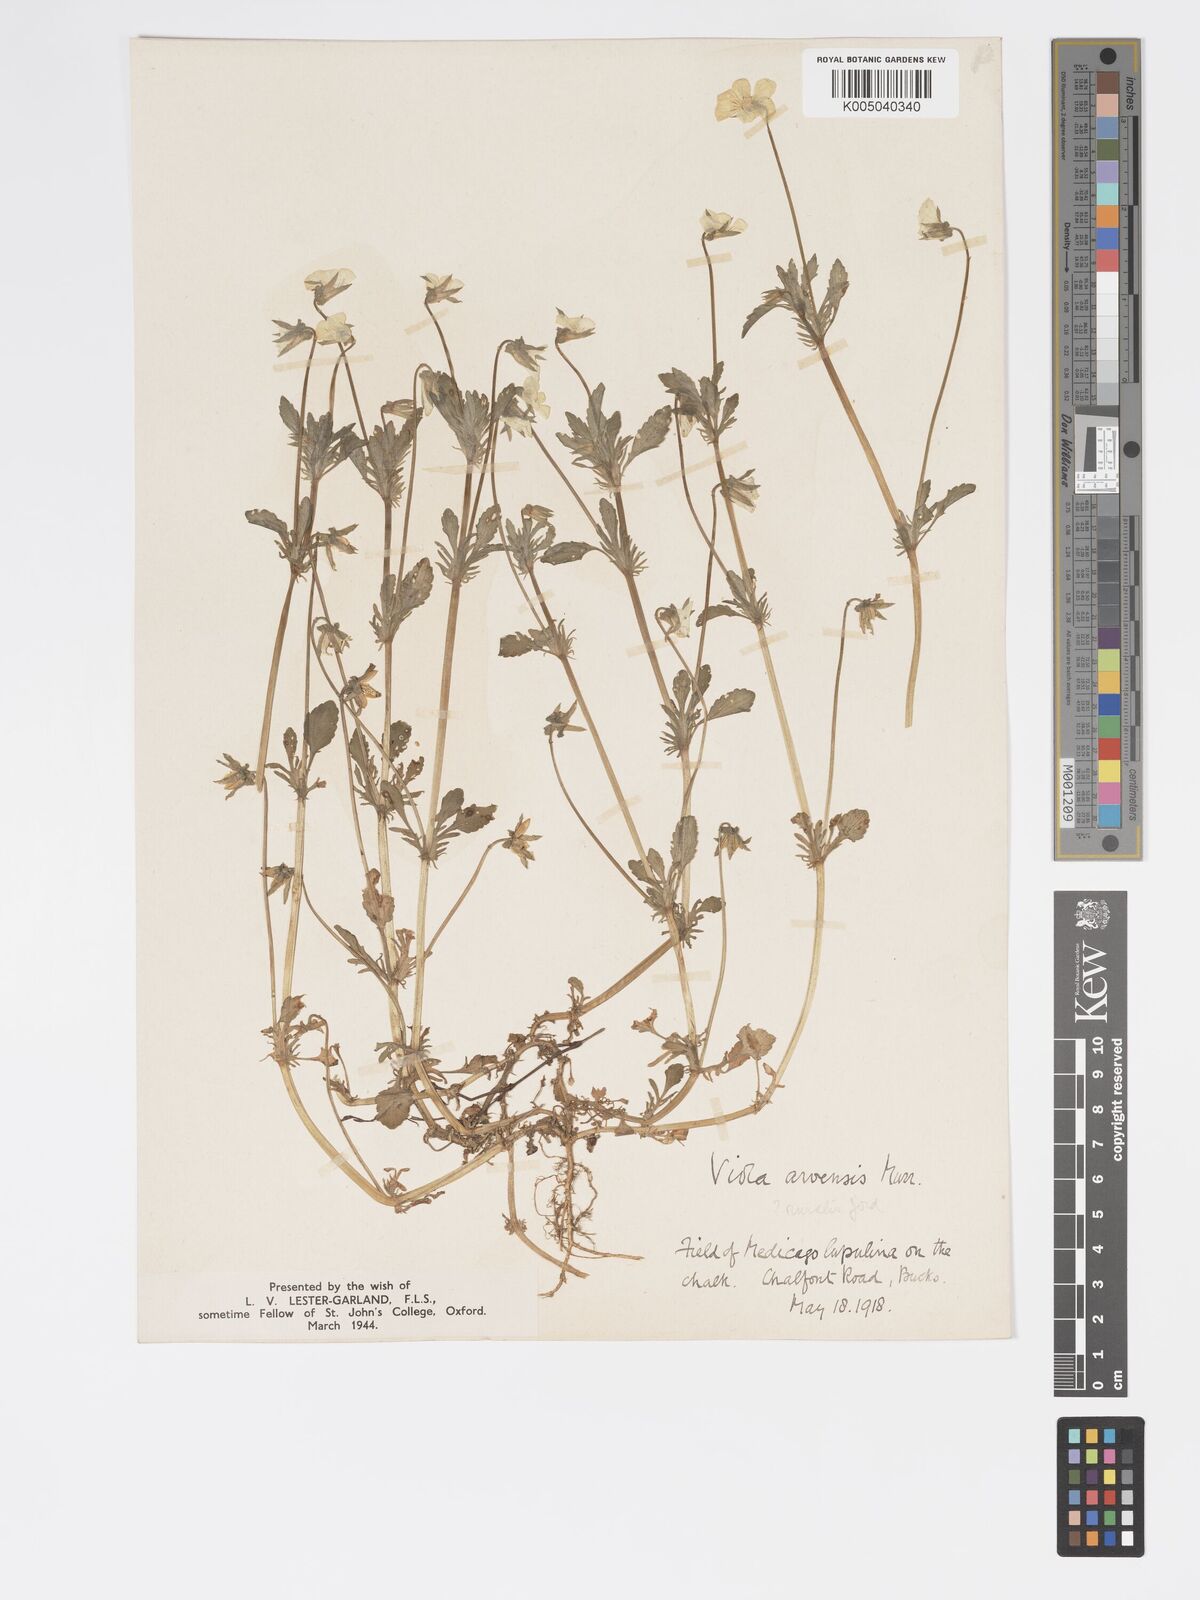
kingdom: Plantae
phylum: Tracheophyta
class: Magnoliopsida
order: Malpighiales
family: Violaceae
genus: Viola
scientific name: Viola arvensis
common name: Field pansy
